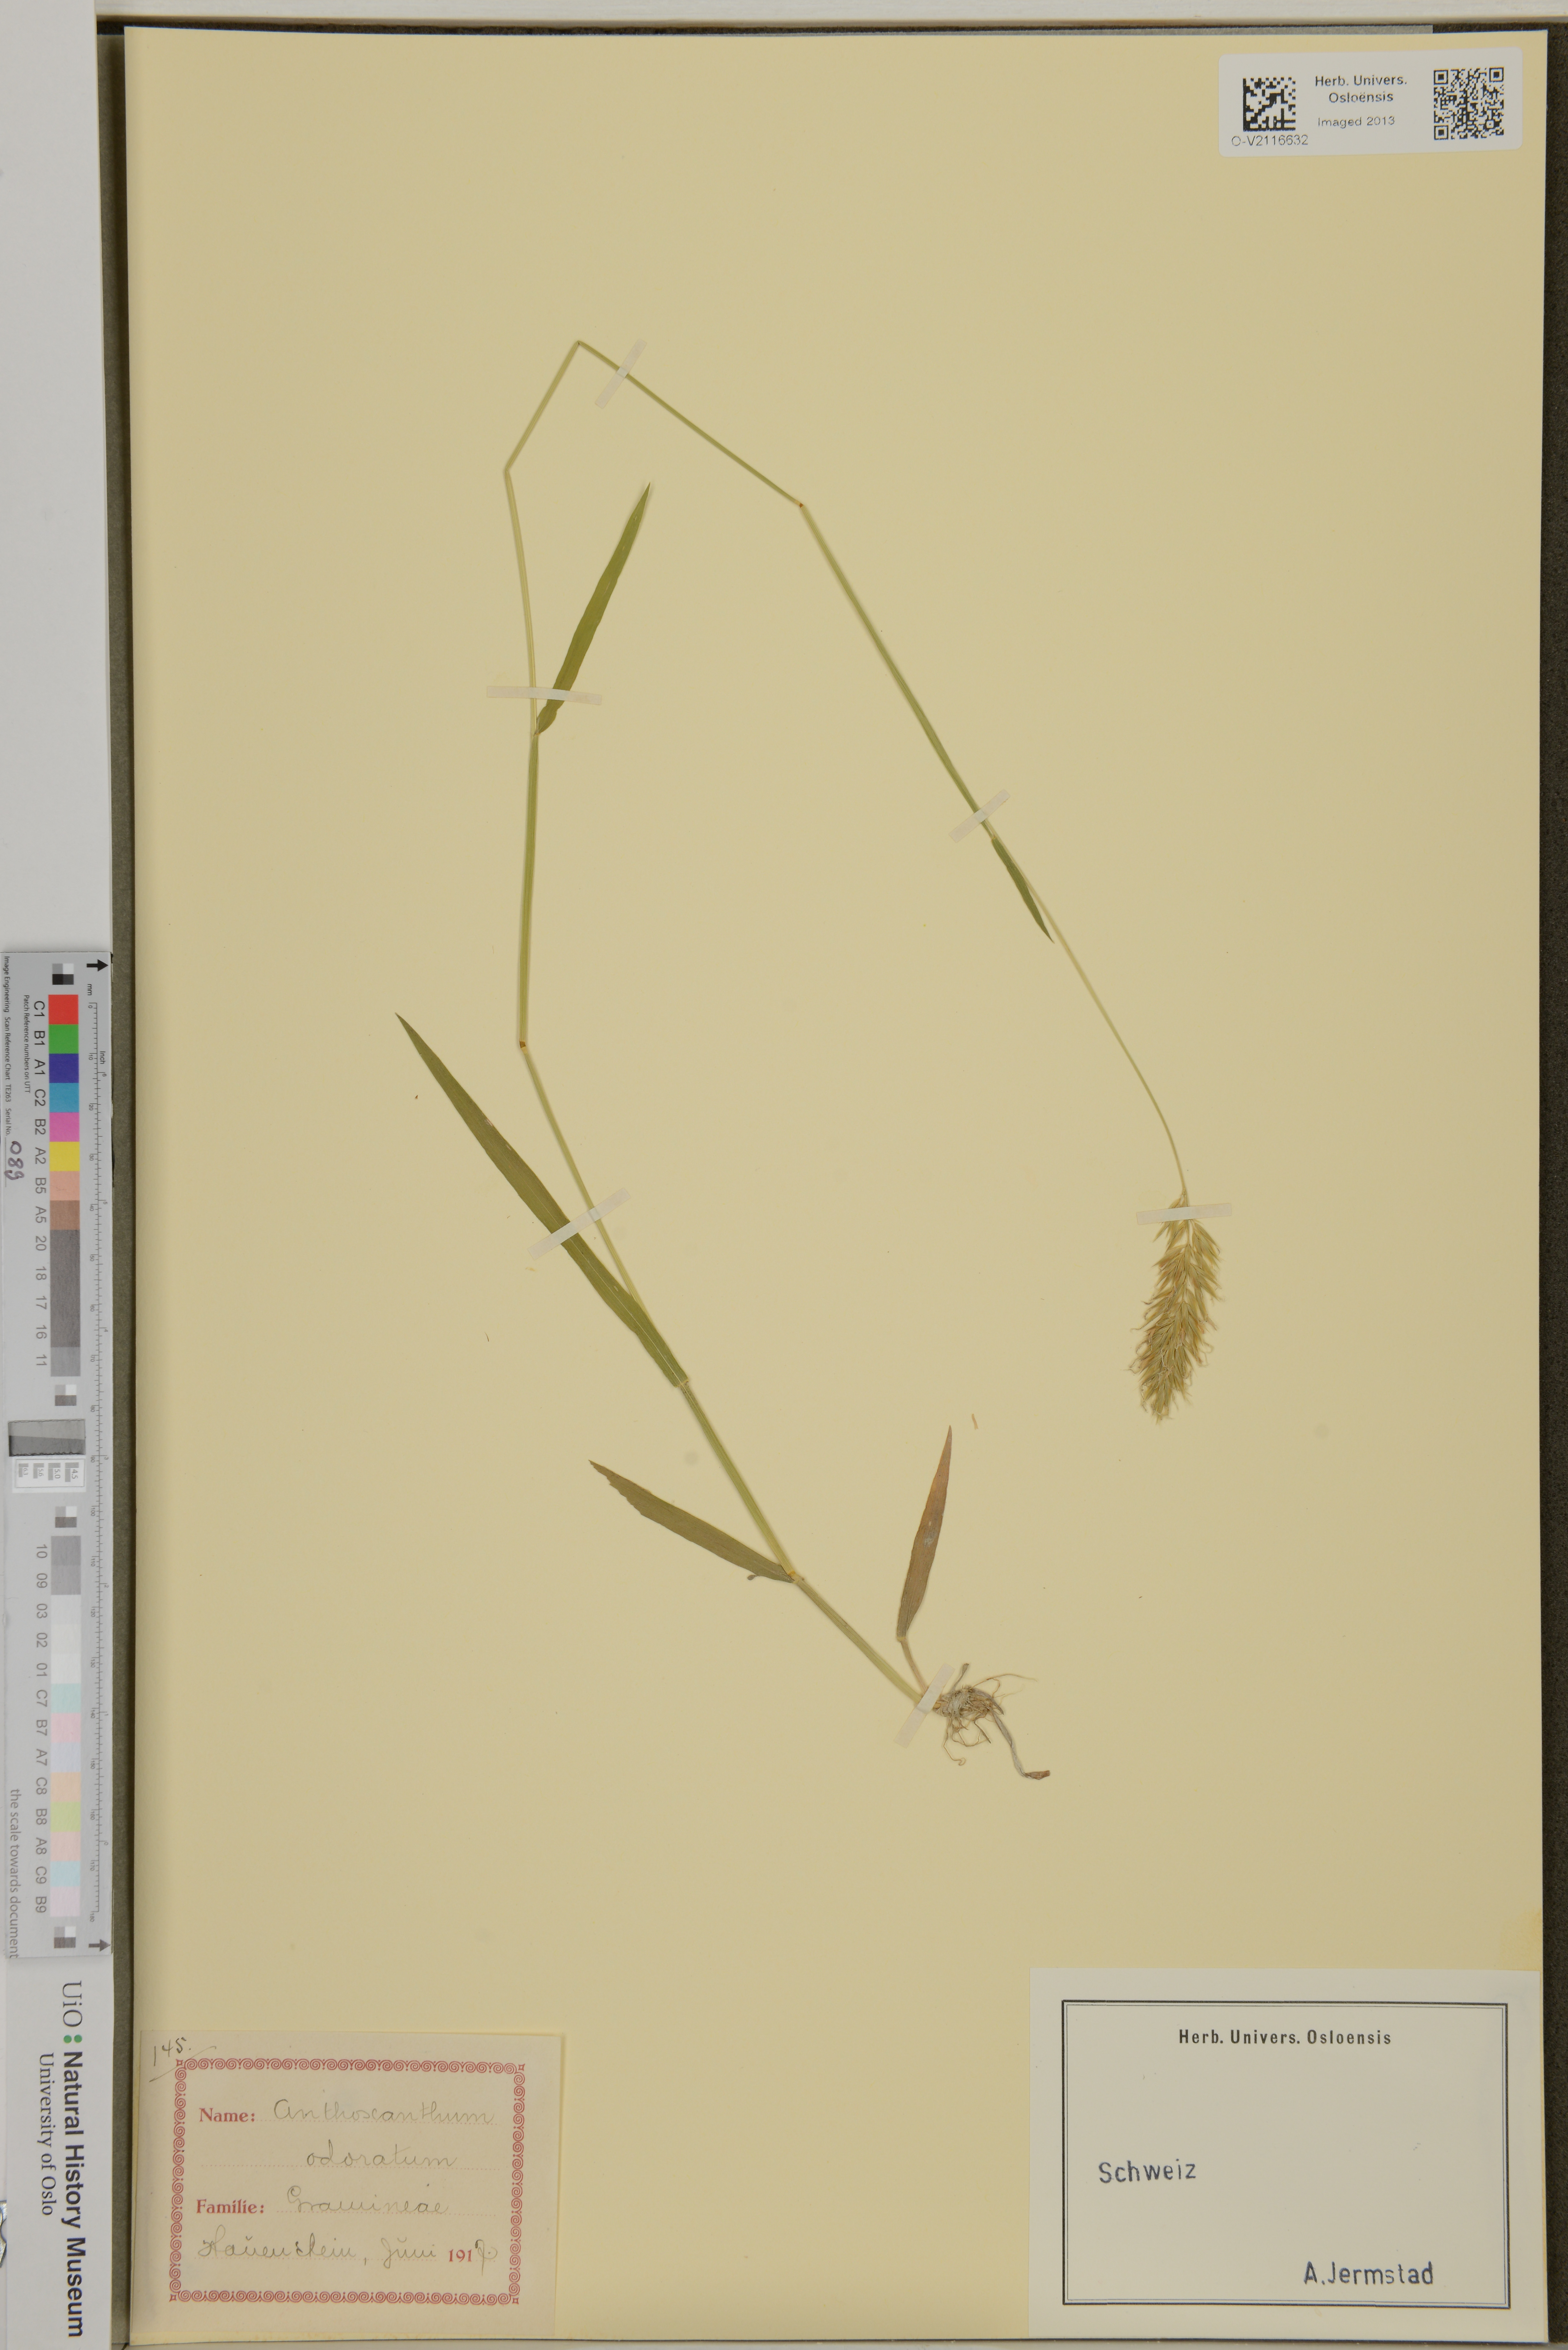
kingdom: Plantae
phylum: Tracheophyta
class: Liliopsida
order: Poales
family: Poaceae
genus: Anthoxanthum
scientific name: Anthoxanthum odoratum
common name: Sweet vernalgrass
